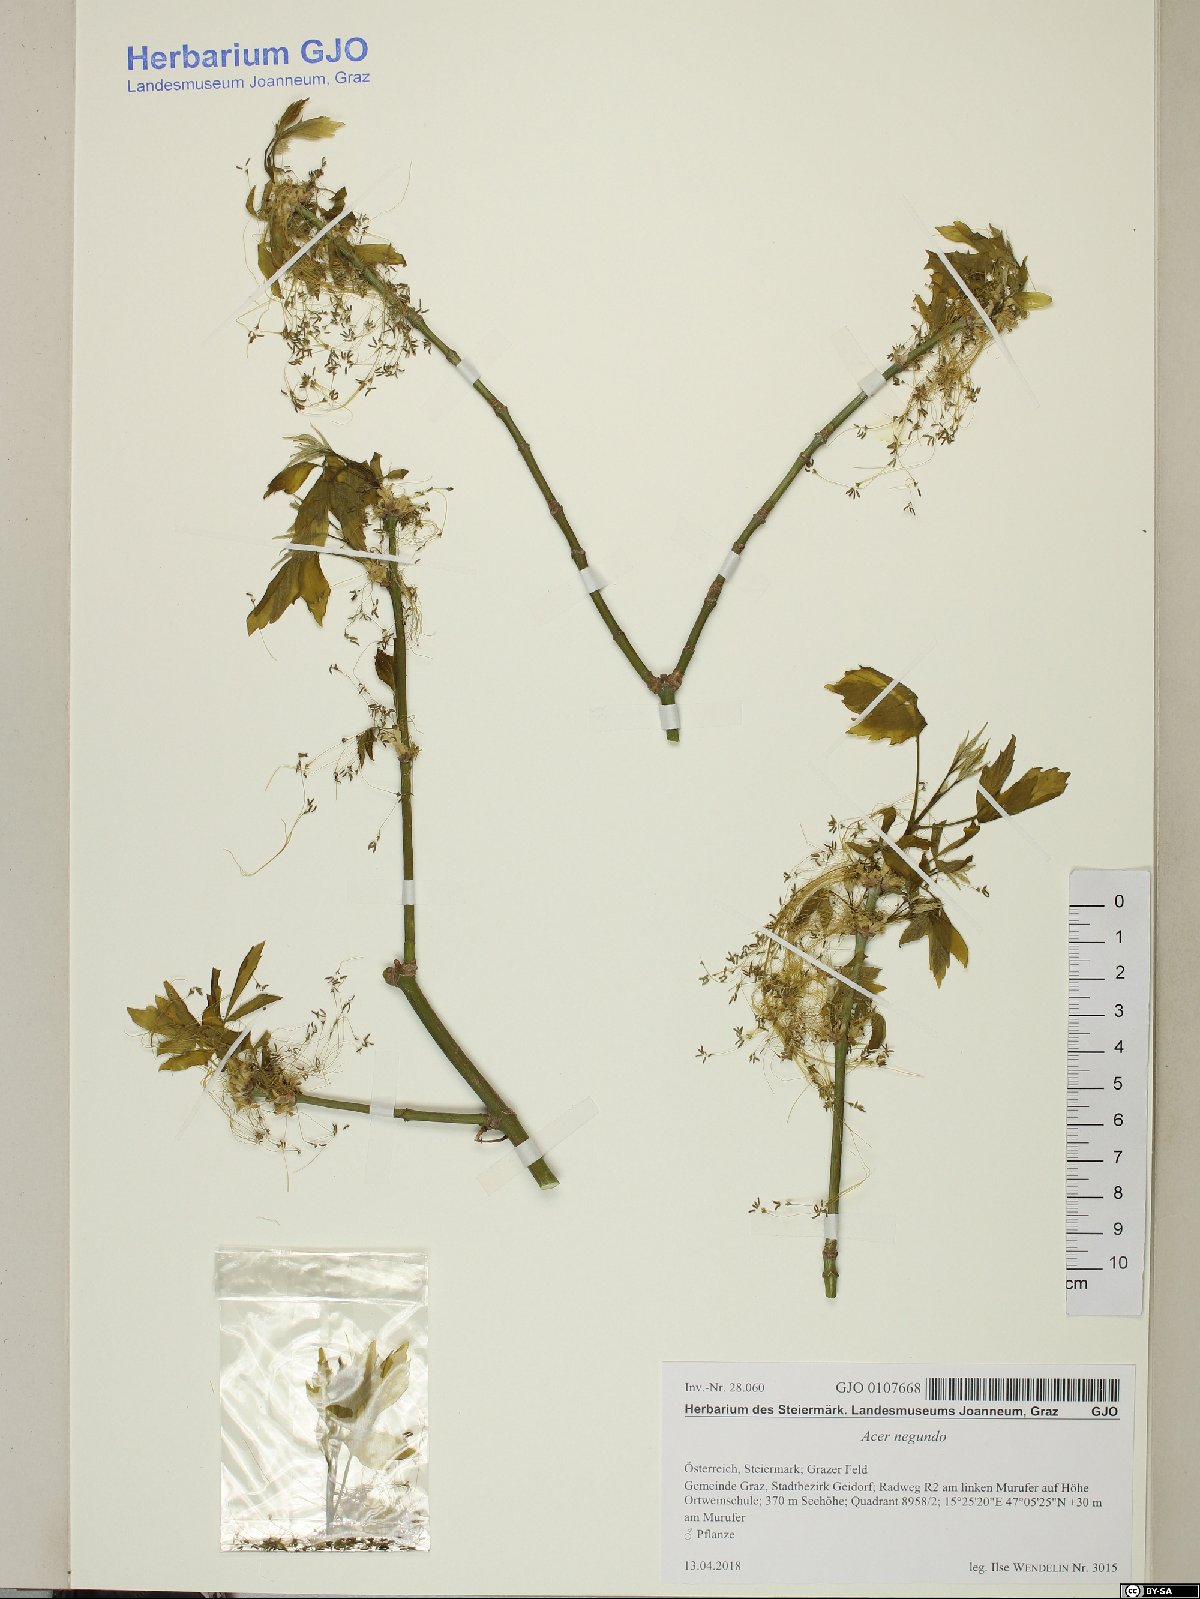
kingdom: Plantae
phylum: Tracheophyta
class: Magnoliopsida
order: Sapindales
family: Sapindaceae
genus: Acer
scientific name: Acer negundo
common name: Ashleaf maple
